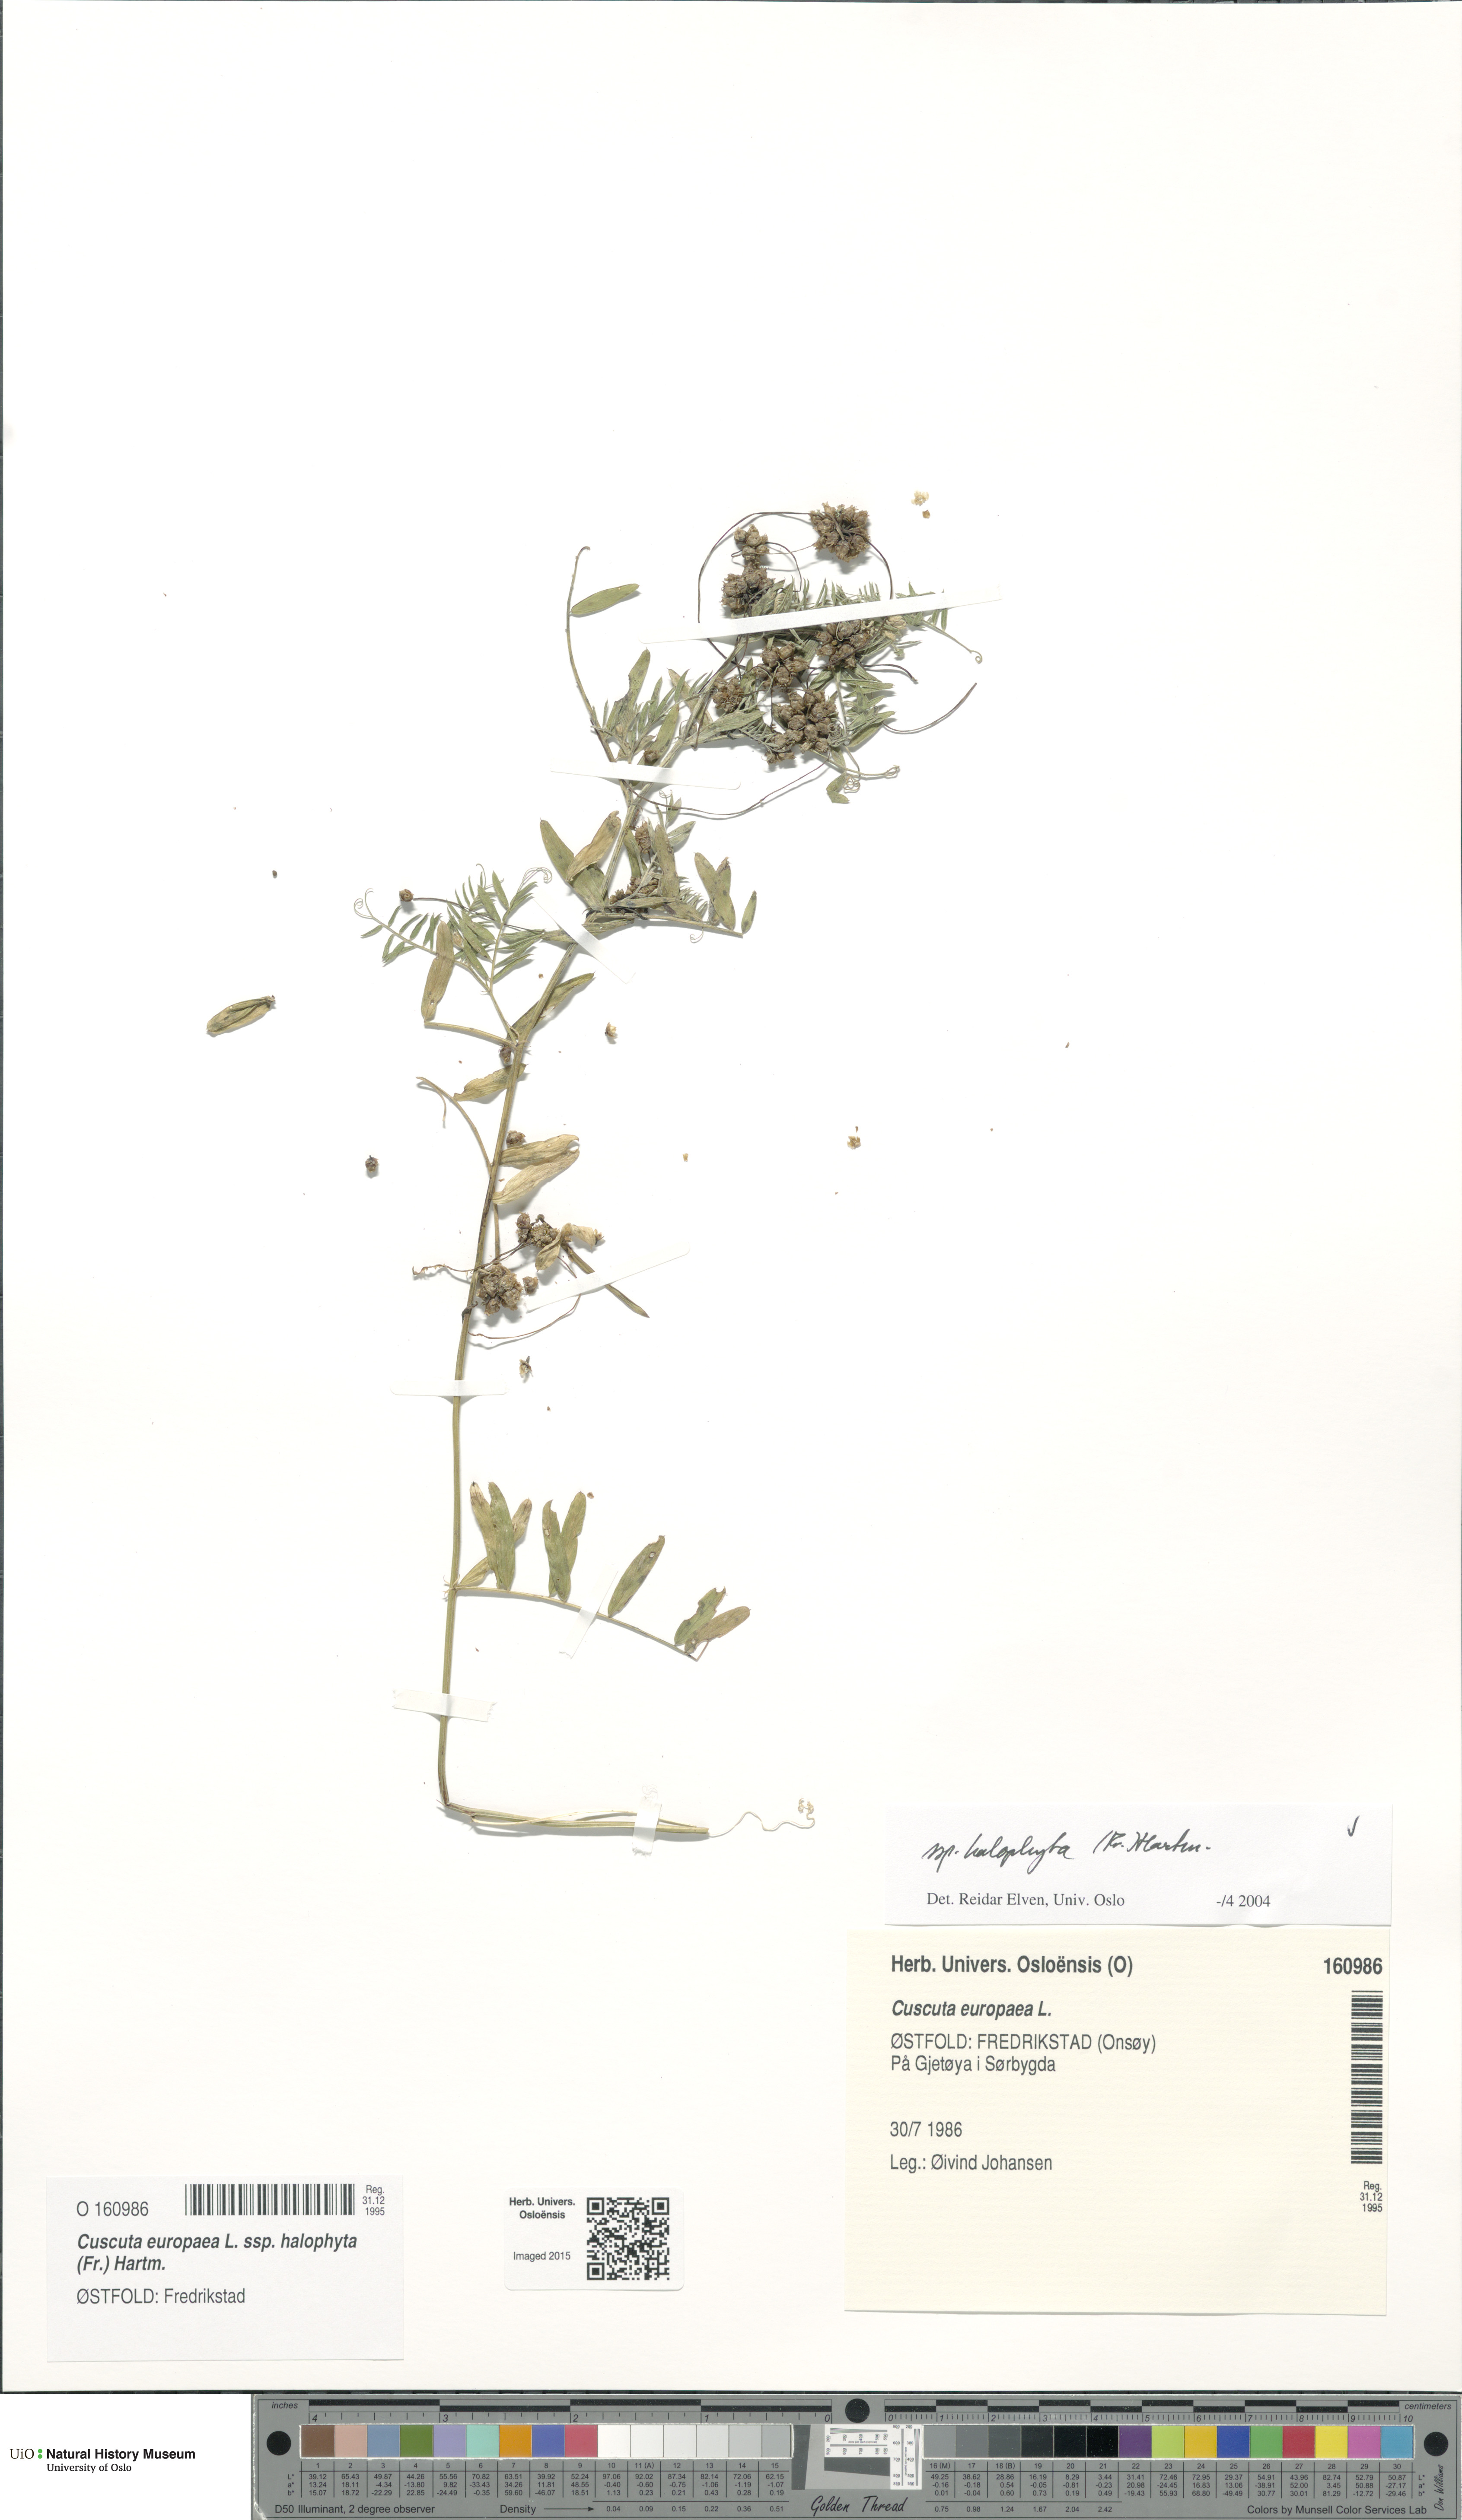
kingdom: Plantae
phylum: Tracheophyta
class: Magnoliopsida
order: Solanales
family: Convolvulaceae
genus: Cuscuta
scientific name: Cuscuta europaea
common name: Greater dodder
